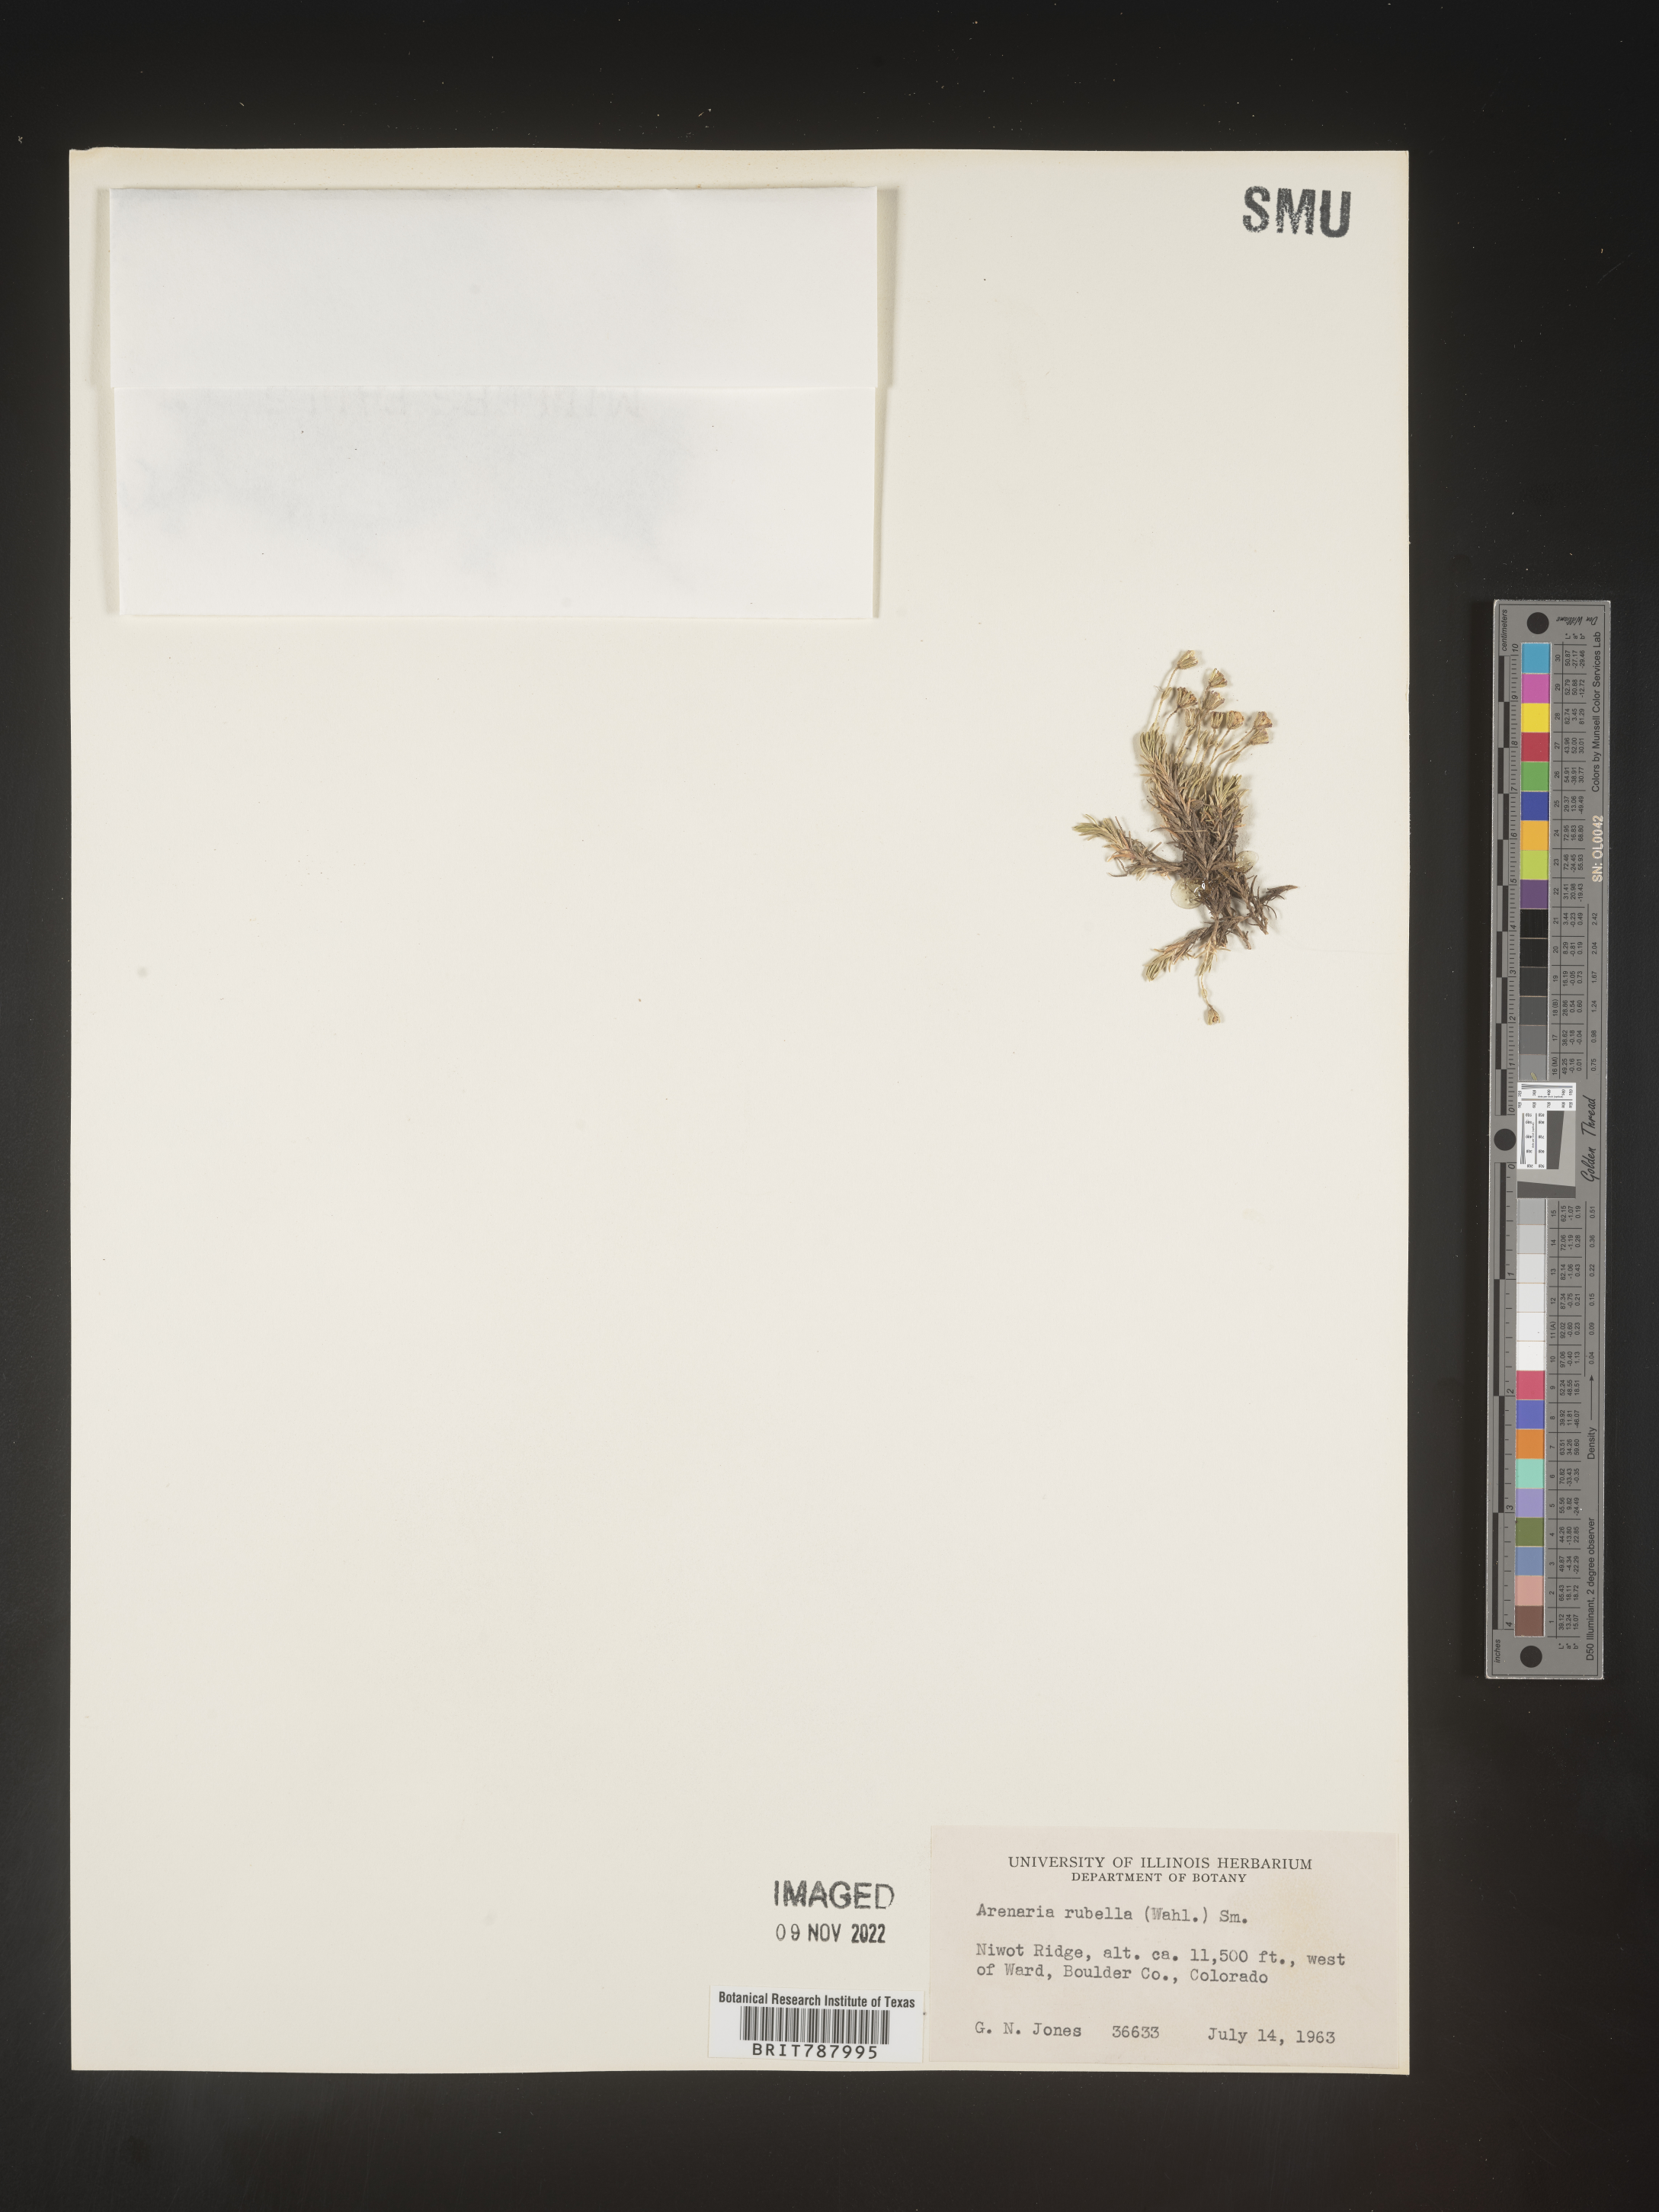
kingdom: Plantae
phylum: Tracheophyta
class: Magnoliopsida
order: Caryophyllales
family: Caryophyllaceae
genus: Arenaria
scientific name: Arenaria
